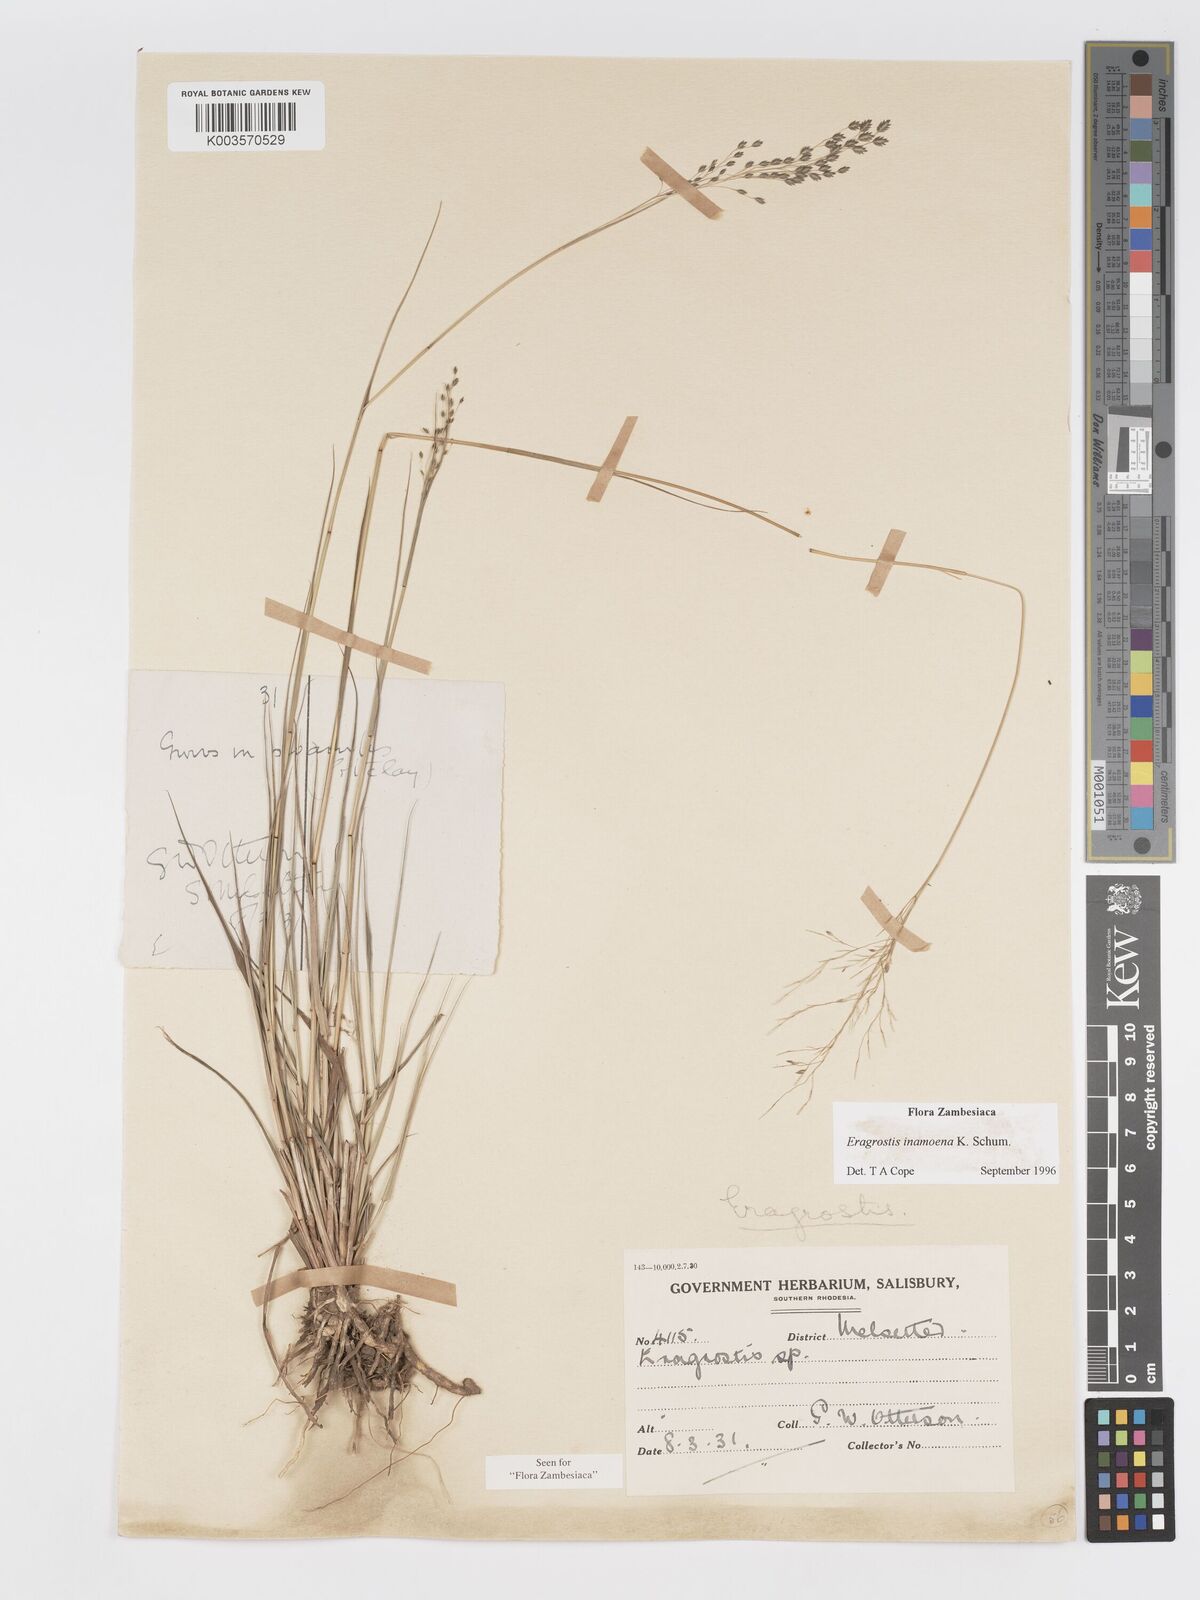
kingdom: Plantae
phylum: Tracheophyta
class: Liliopsida
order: Poales
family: Poaceae
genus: Eragrostis
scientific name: Eragrostis inamoena
